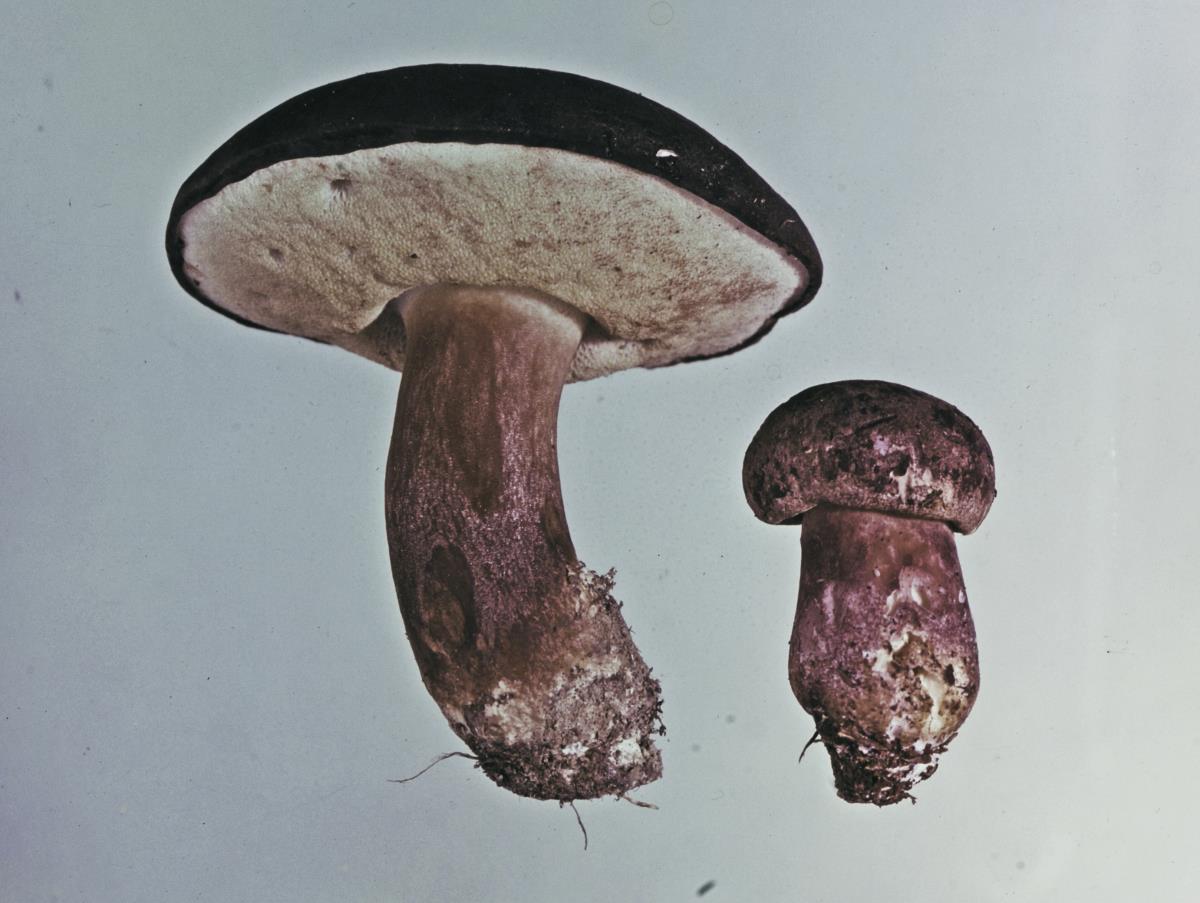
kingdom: Fungi
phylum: Basidiomycota
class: Agaricomycetes
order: Boletales
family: Boletaceae
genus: Porphyrellus
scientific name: Porphyrellus formosus
